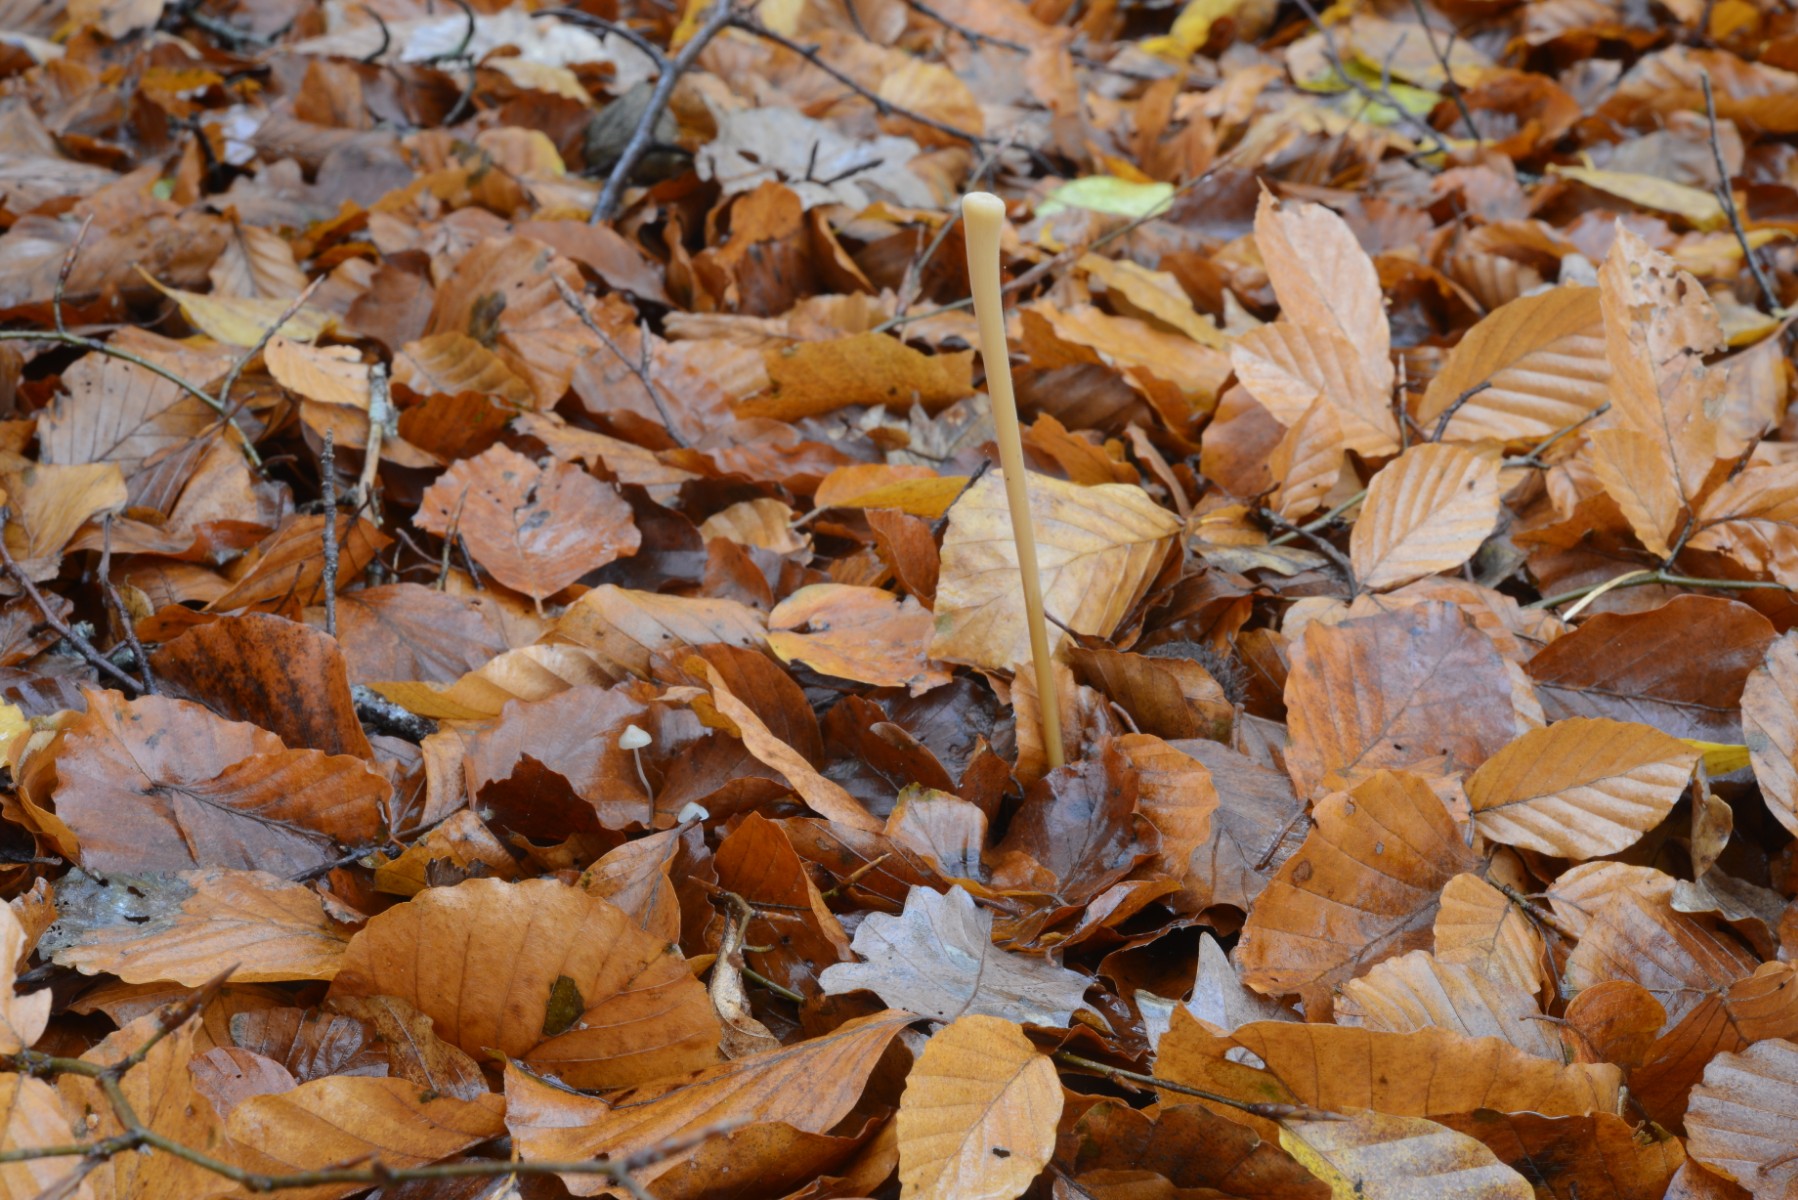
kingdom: Fungi
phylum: Basidiomycota
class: Agaricomycetes
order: Agaricales
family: Typhulaceae
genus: Typhula
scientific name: Typhula fistulosa
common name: pibet rørkølle
